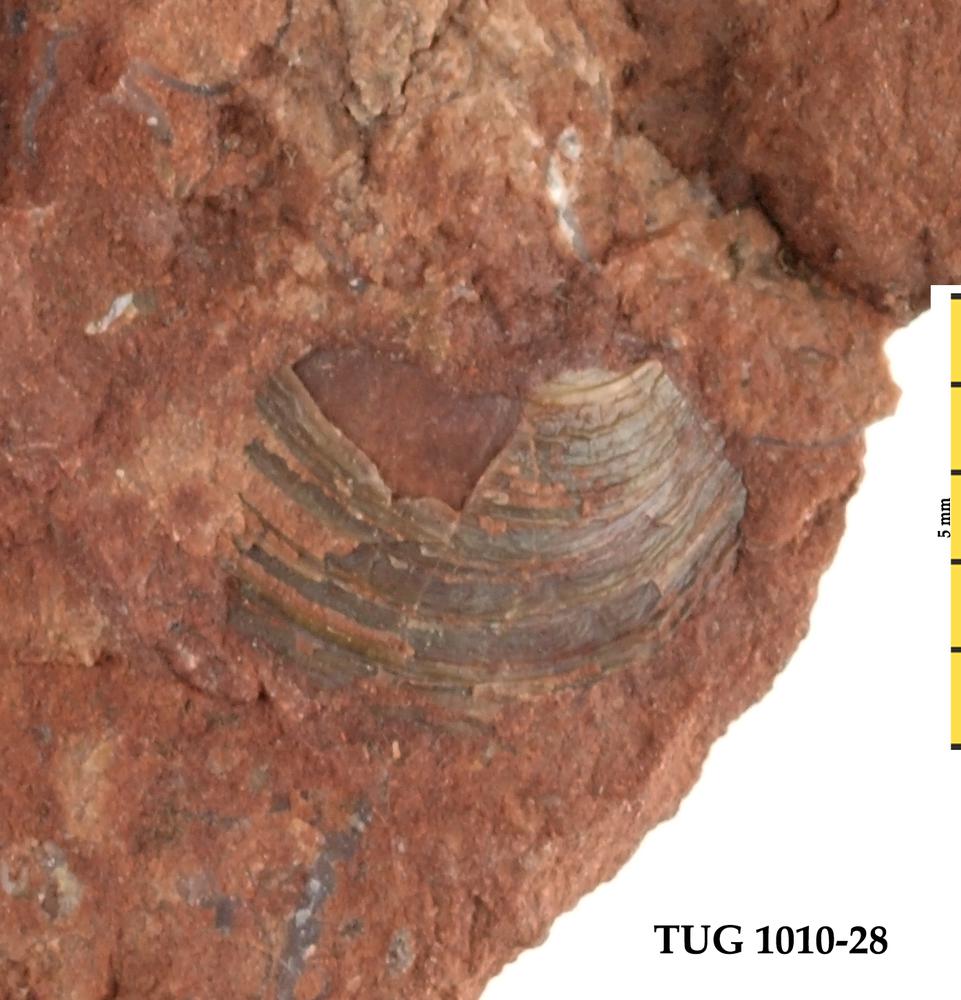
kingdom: Animalia
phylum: Brachiopoda
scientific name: Brachiopoda
